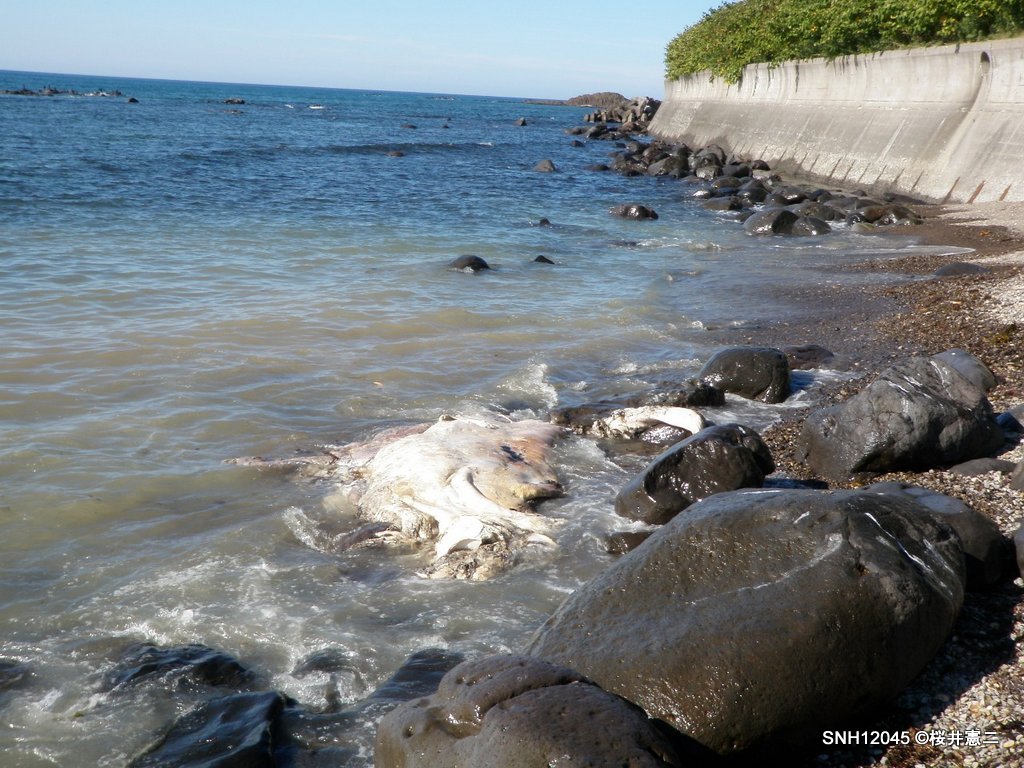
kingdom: Animalia
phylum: Chordata
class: Mammalia
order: Cetacea
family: Balaenopteridae
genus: Balaenoptera
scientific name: Balaenoptera acutorostrata
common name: Minke whale
